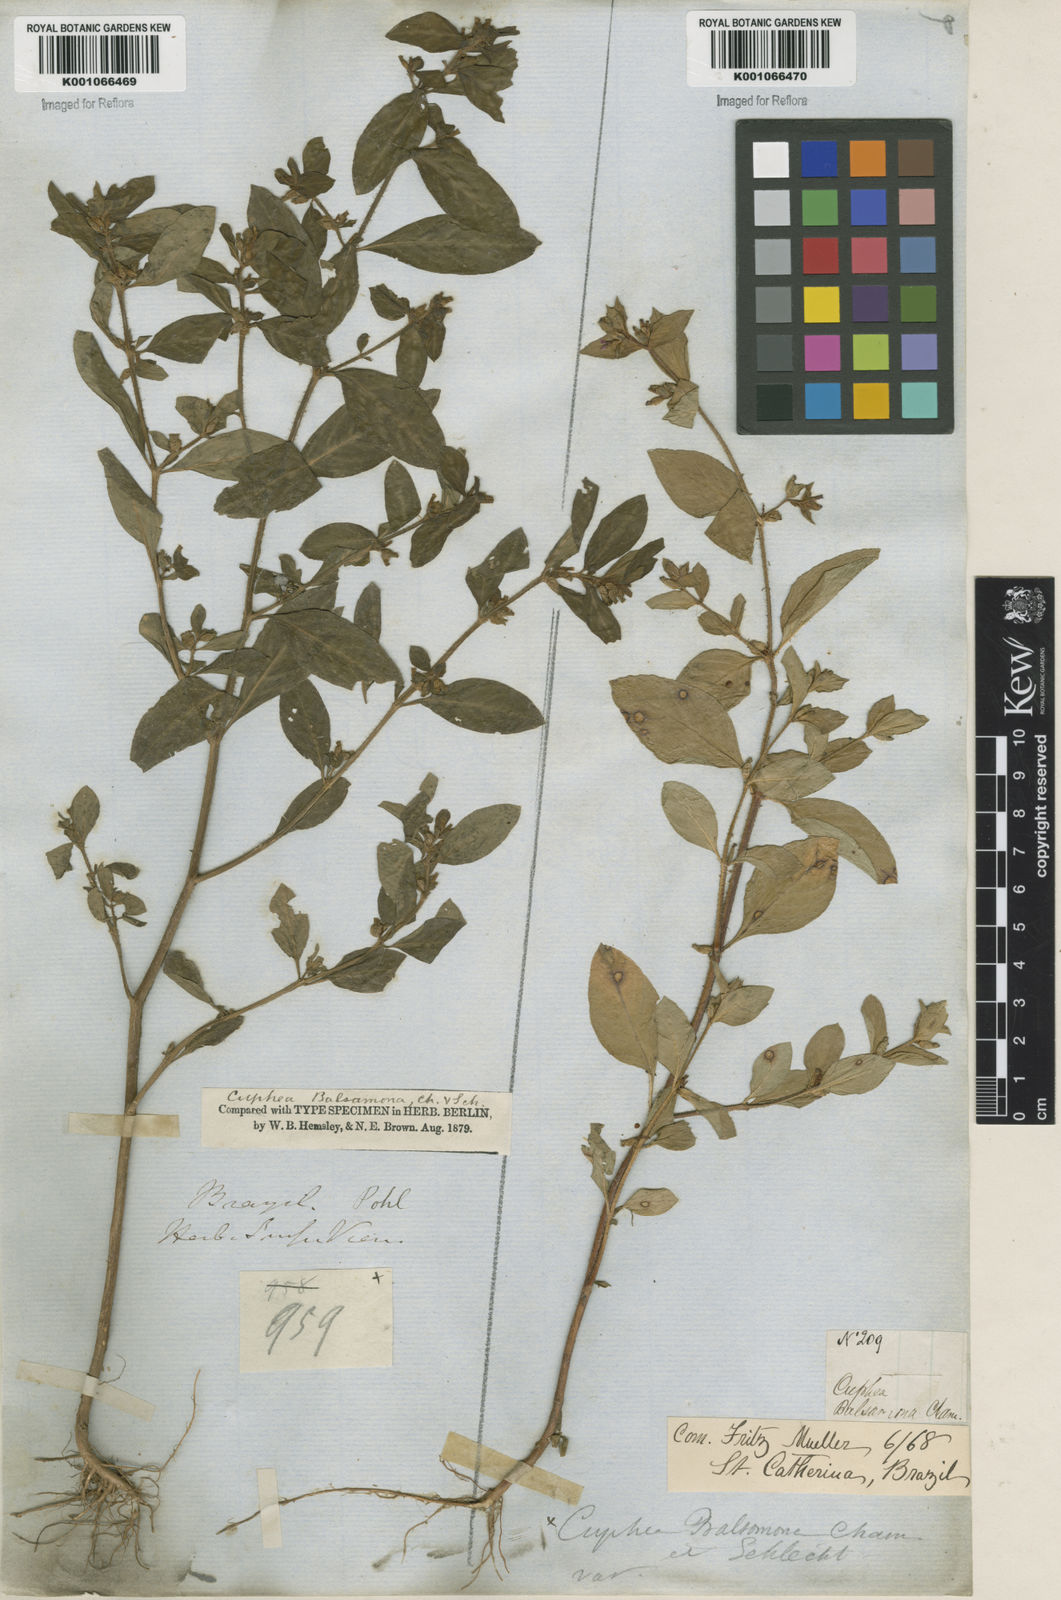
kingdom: Plantae
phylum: Tracheophyta
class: Magnoliopsida
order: Myrtales
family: Lythraceae
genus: Cuphea
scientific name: Cuphea carthagenensis
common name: Colombian waxweed
